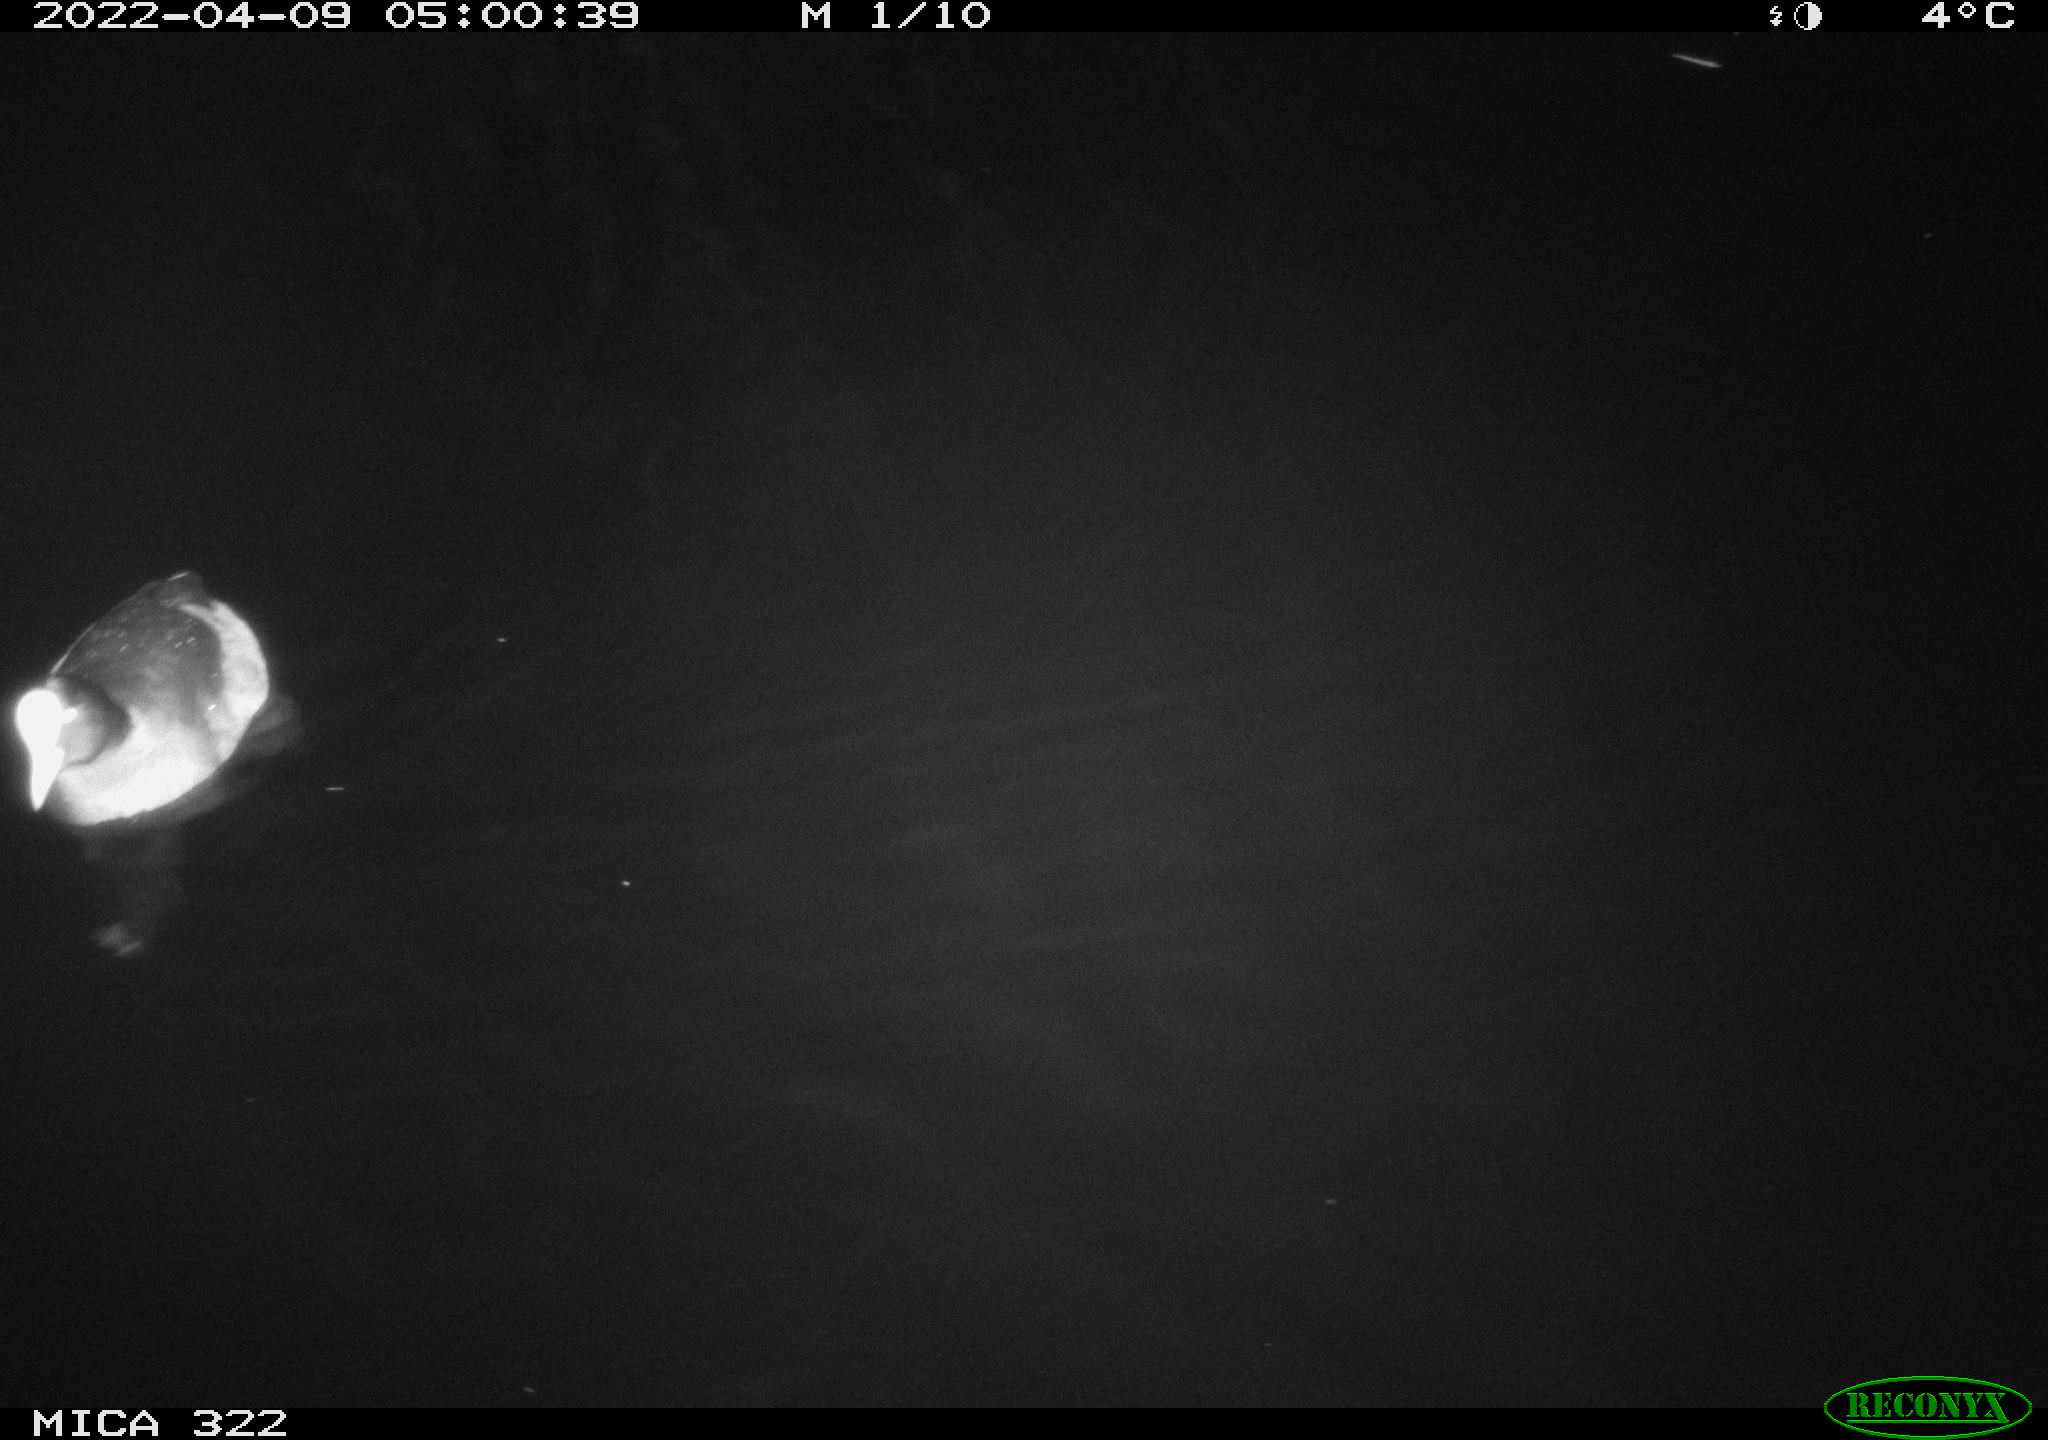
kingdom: Animalia
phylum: Chordata
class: Aves
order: Gruiformes
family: Rallidae
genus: Gallinula
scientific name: Gallinula chloropus
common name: Common moorhen
